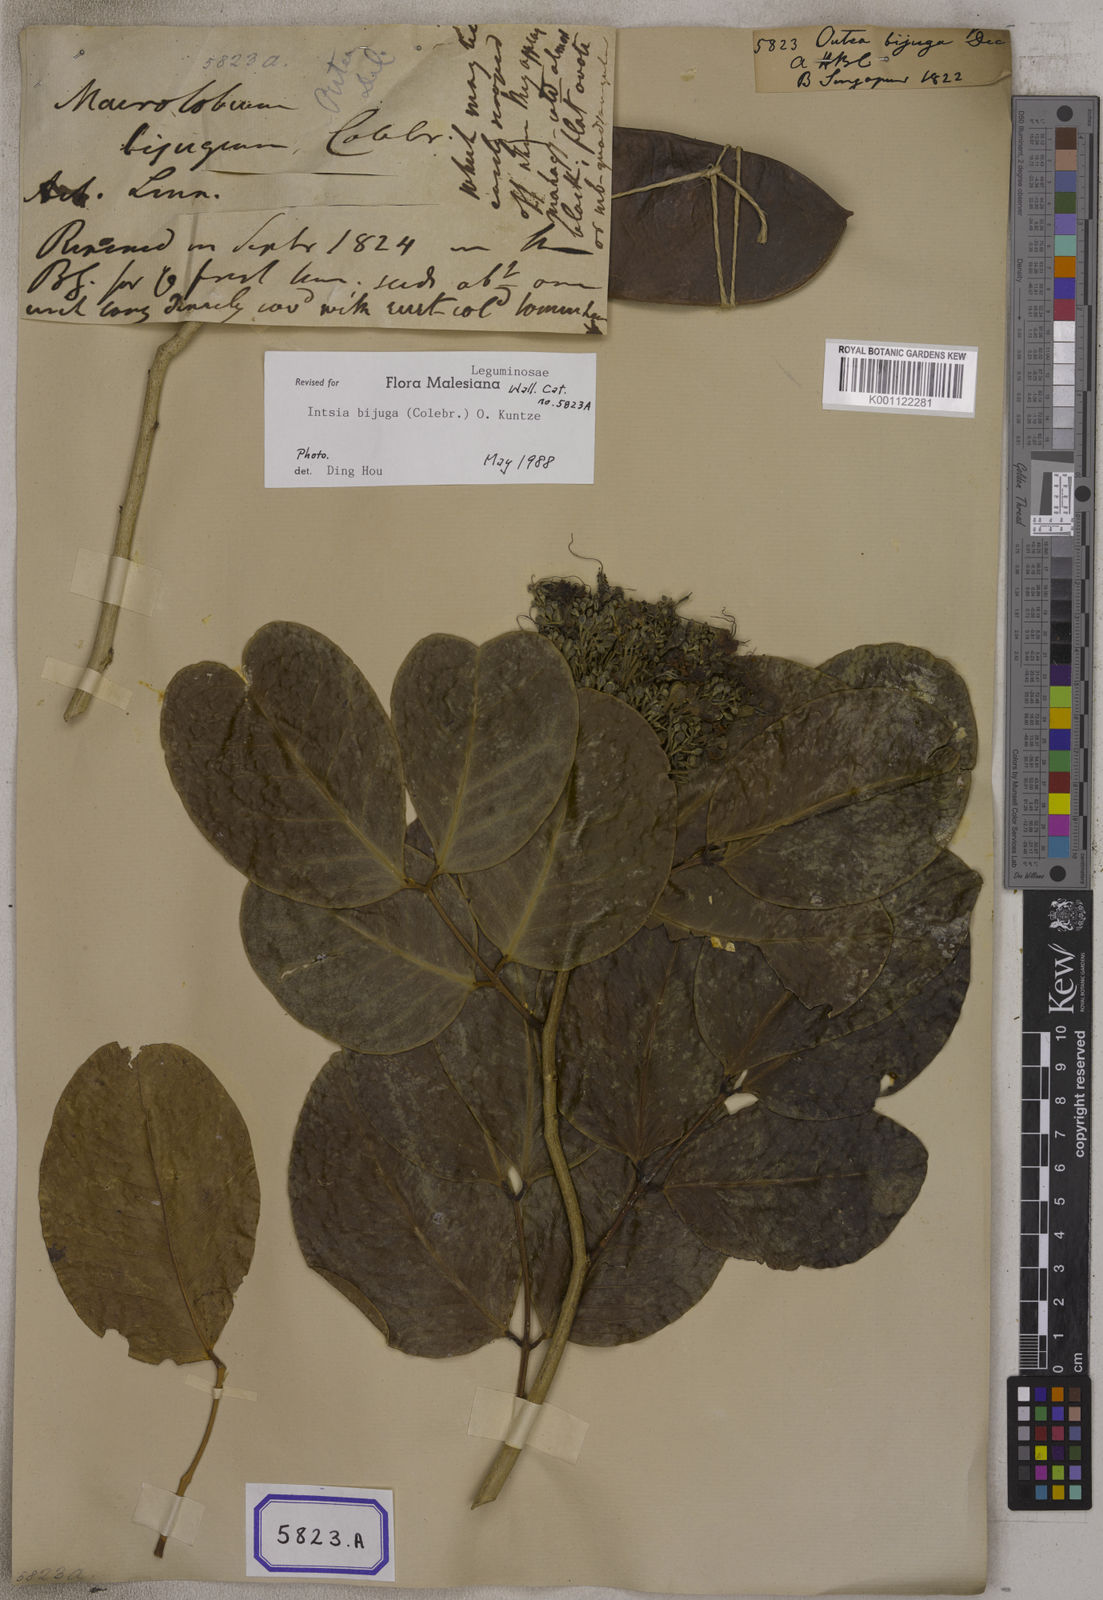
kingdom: Plantae
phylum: Tracheophyta
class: Magnoliopsida
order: Fabales
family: Fabaceae
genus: Intsia
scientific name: Intsia bijuga
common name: Moluccan ironwood
